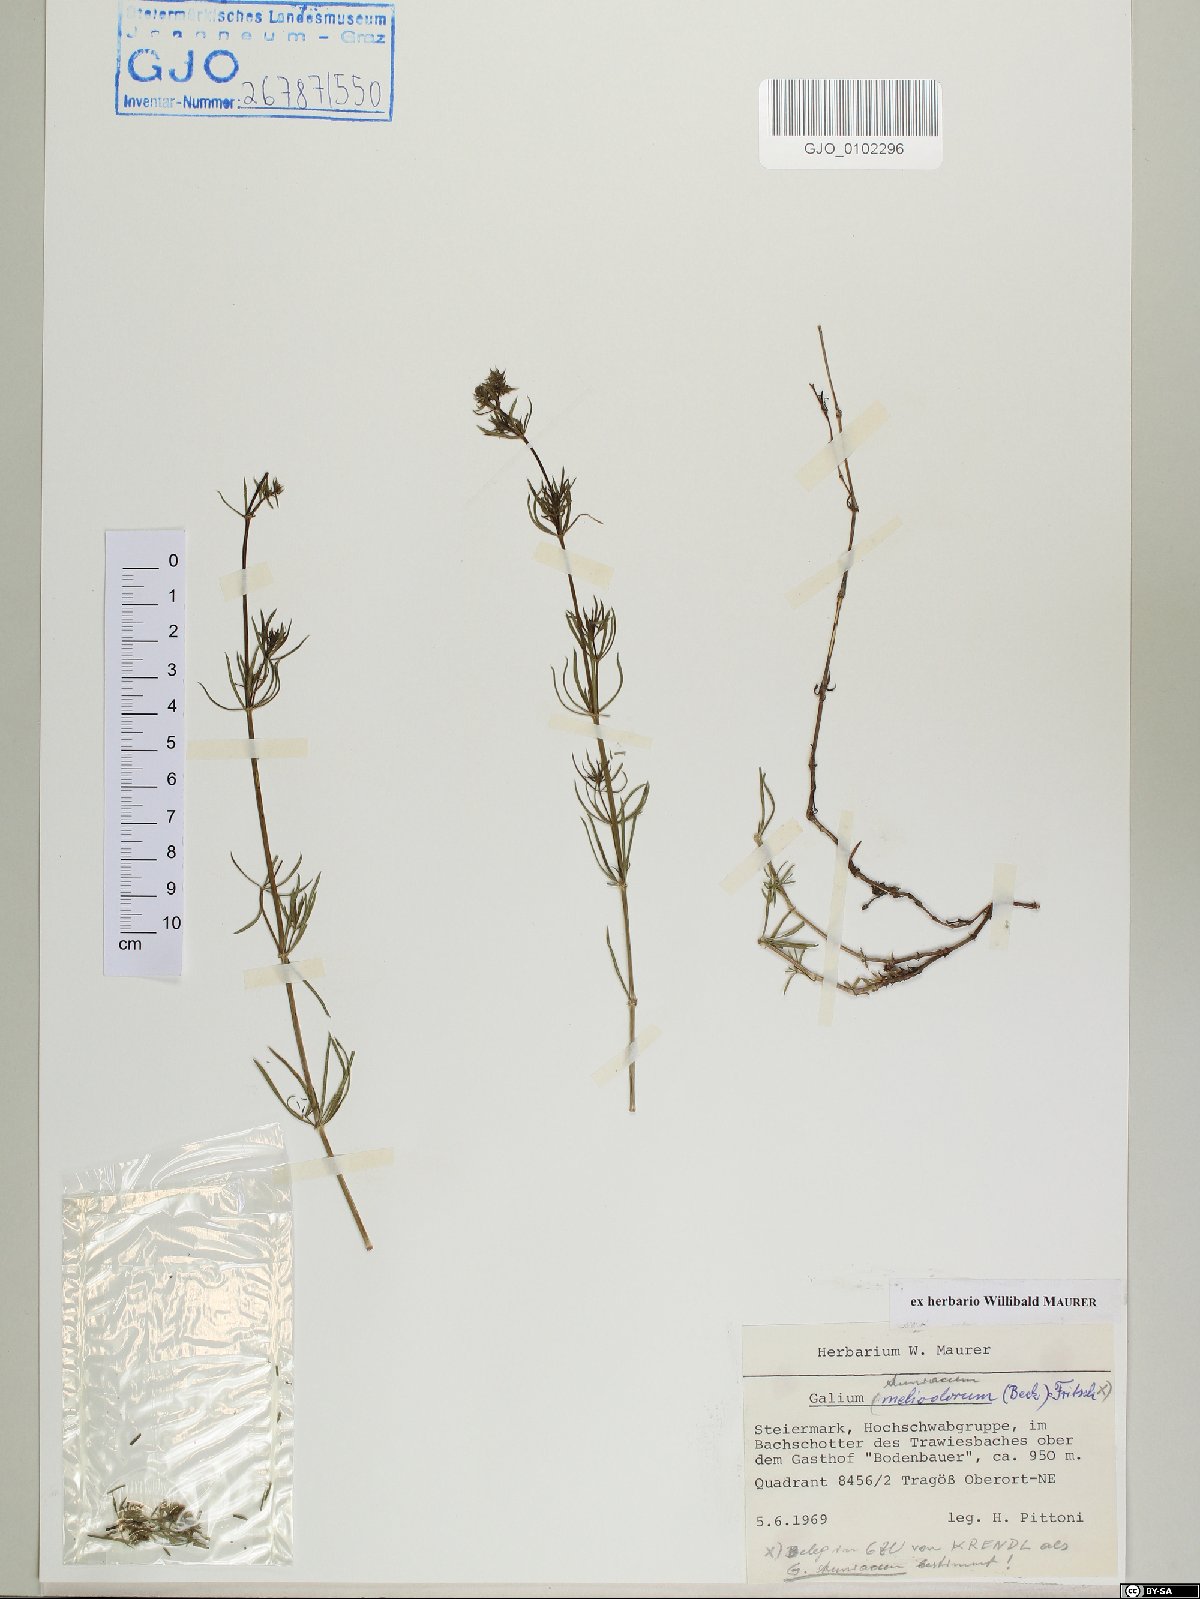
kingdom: Plantae
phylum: Tracheophyta
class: Magnoliopsida
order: Gentianales
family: Rubiaceae
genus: Galium
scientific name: Galium truniacum
